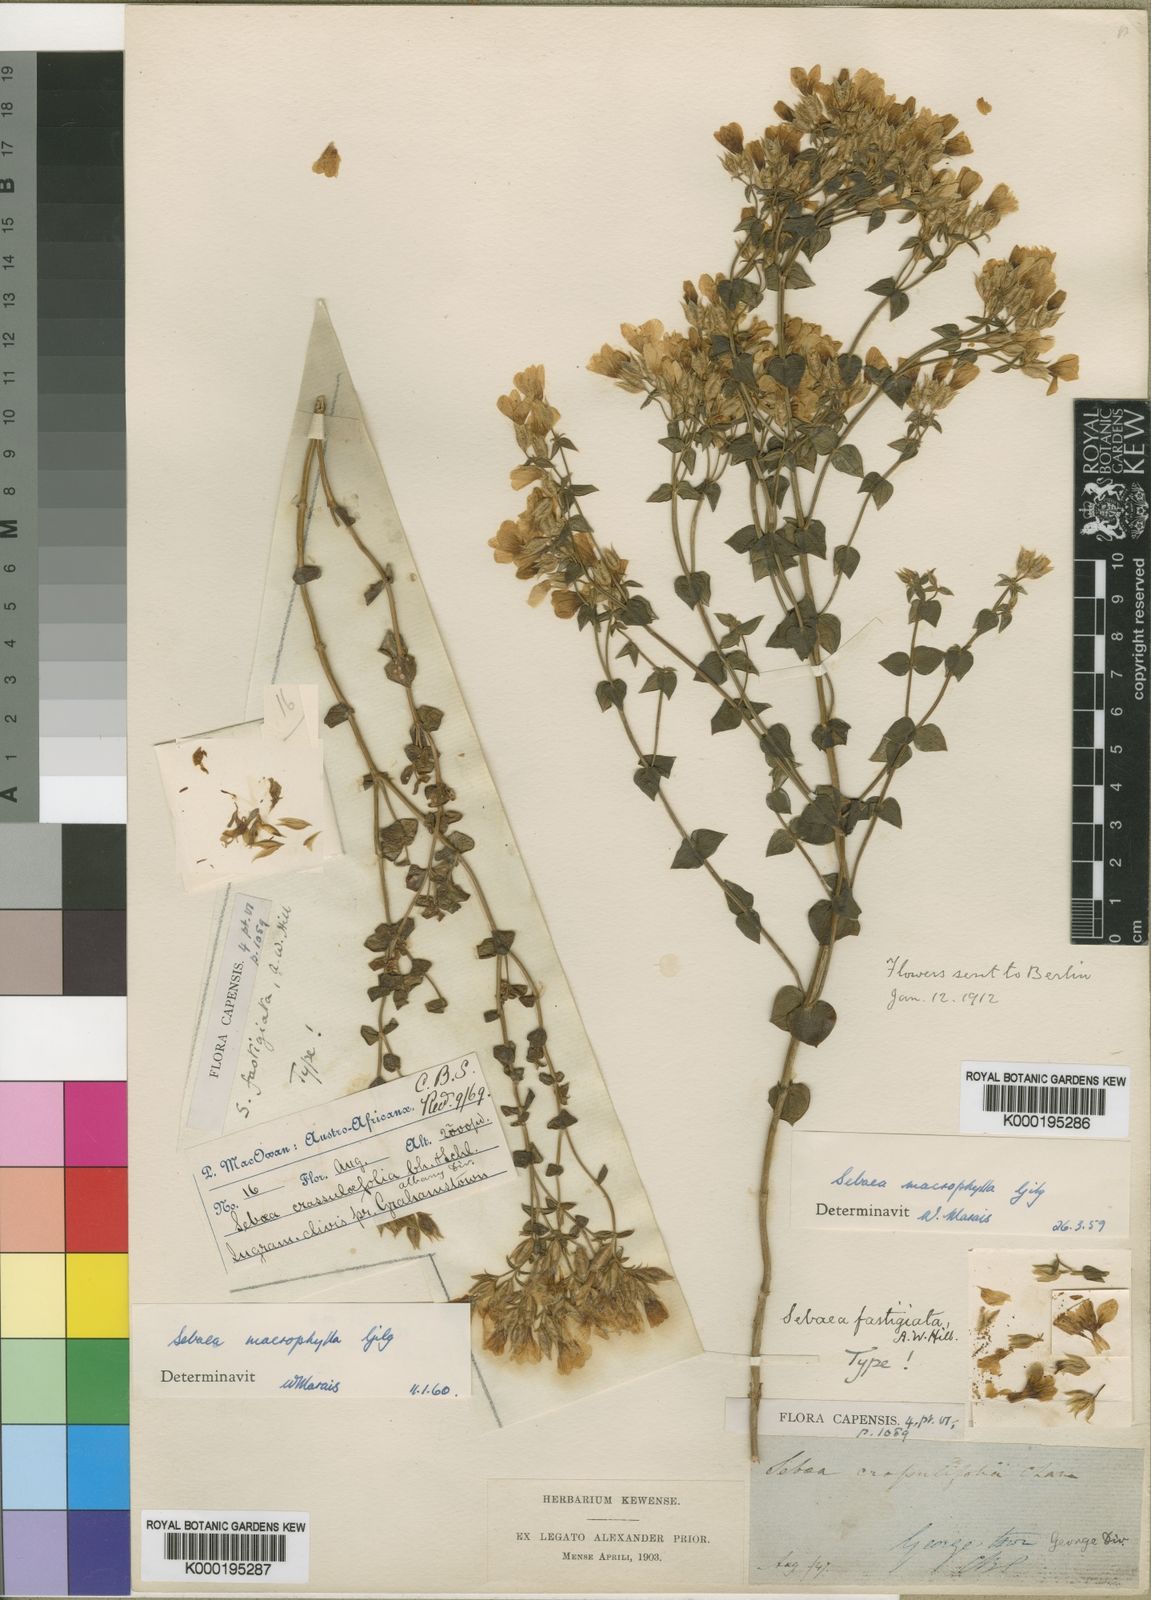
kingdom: Plantae
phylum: Tracheophyta
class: Magnoliopsida
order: Gentianales
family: Gentianaceae
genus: Sebaea
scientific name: Sebaea macrophylla
